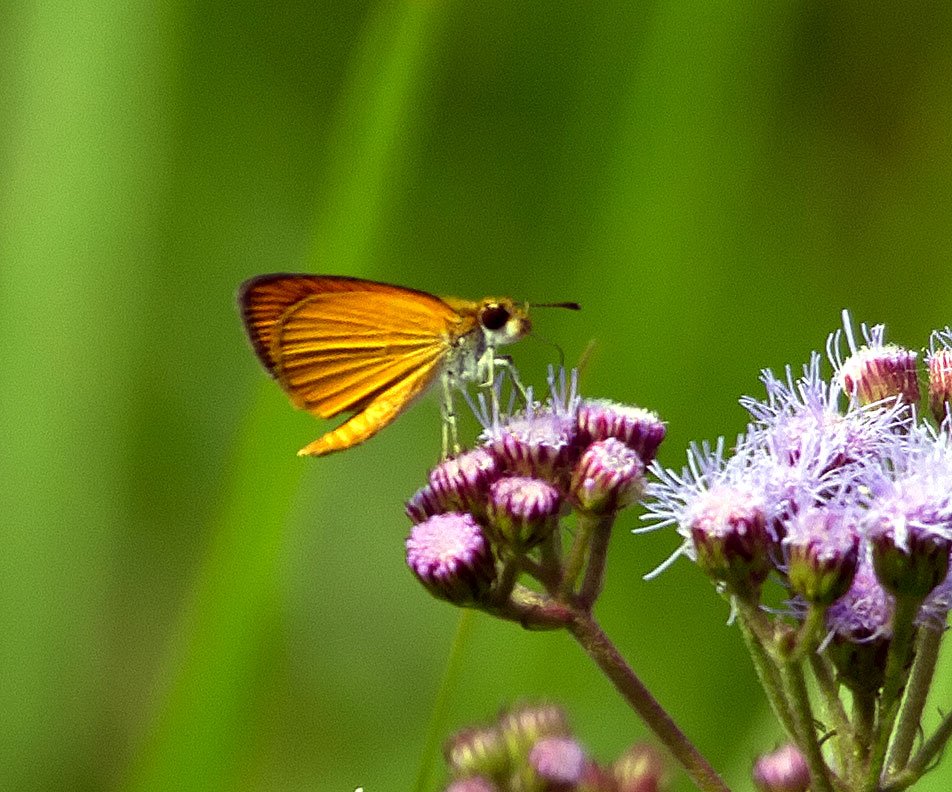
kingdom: Animalia
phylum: Arthropoda
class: Insecta
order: Lepidoptera
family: Hesperiidae
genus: Ancyloxypha
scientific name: Ancyloxypha numitor
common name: Least Skipper
